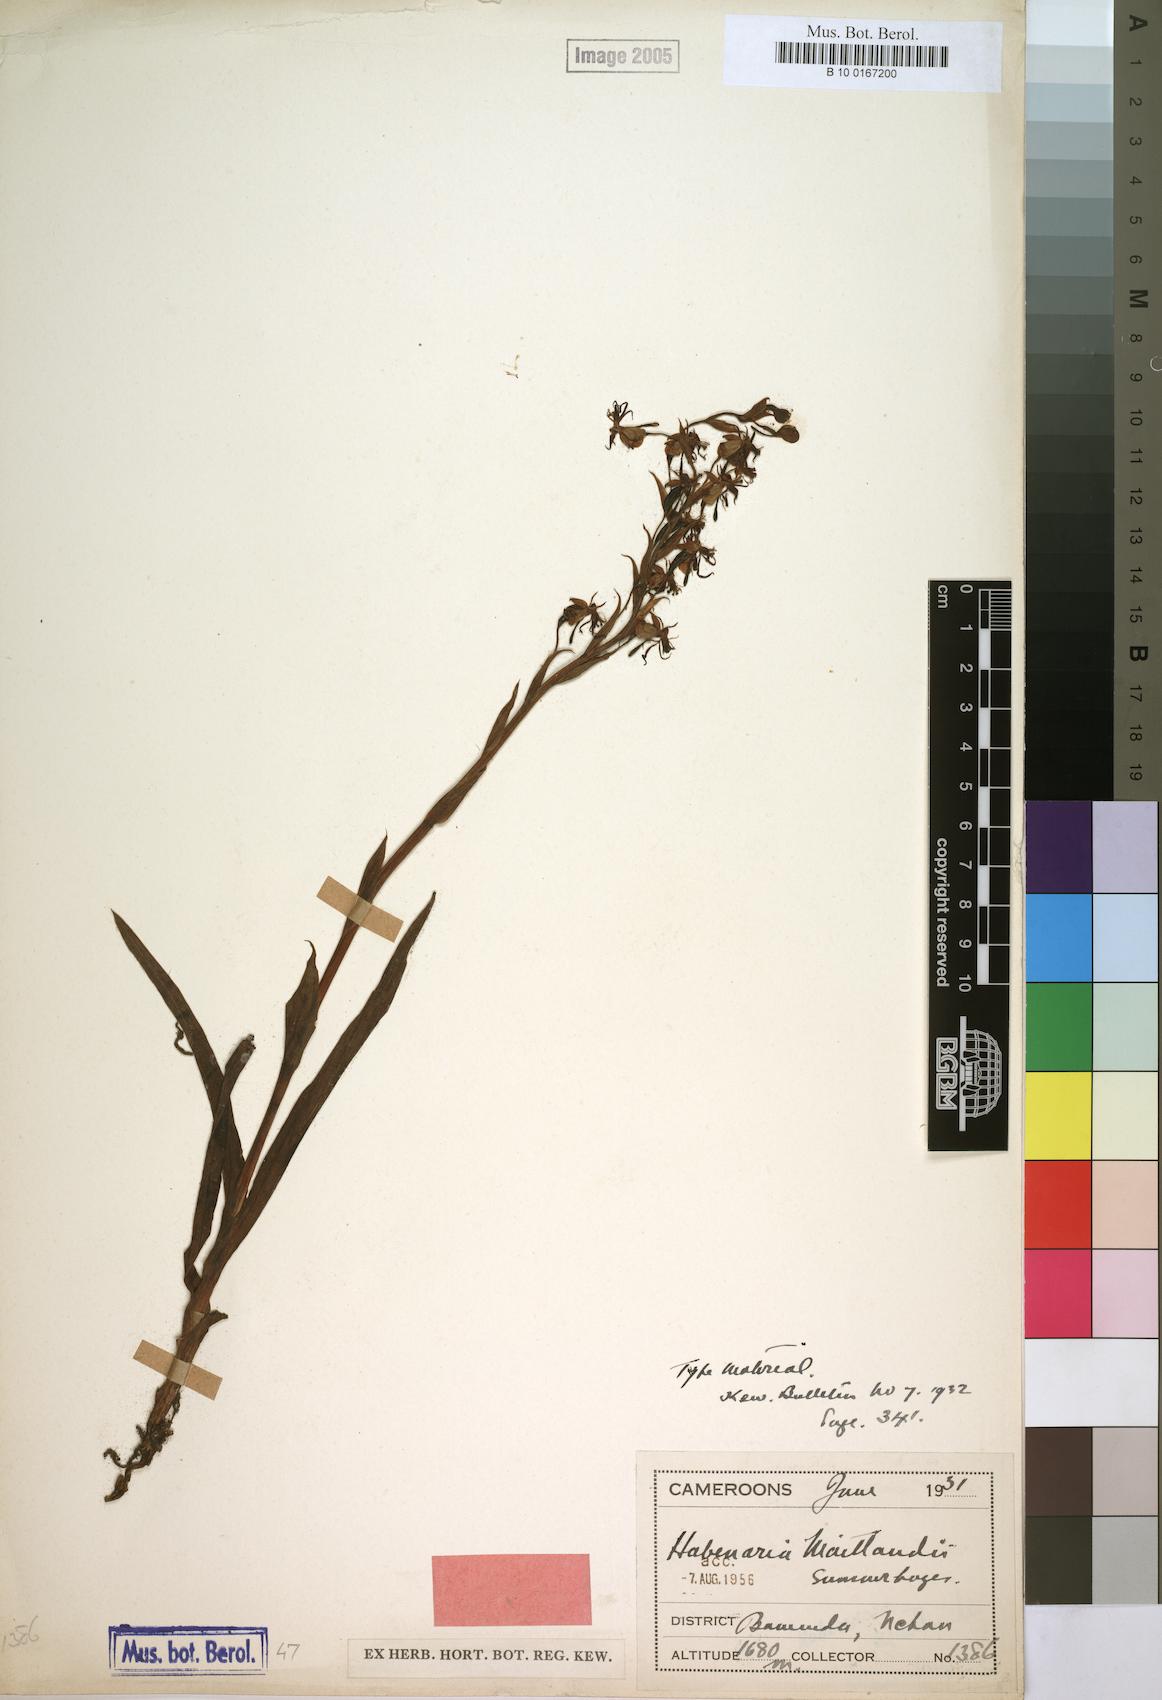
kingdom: Plantae
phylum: Tracheophyta
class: Liliopsida
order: Asparagales
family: Orchidaceae
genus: Habenaria
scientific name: Habenaria maitlandii
